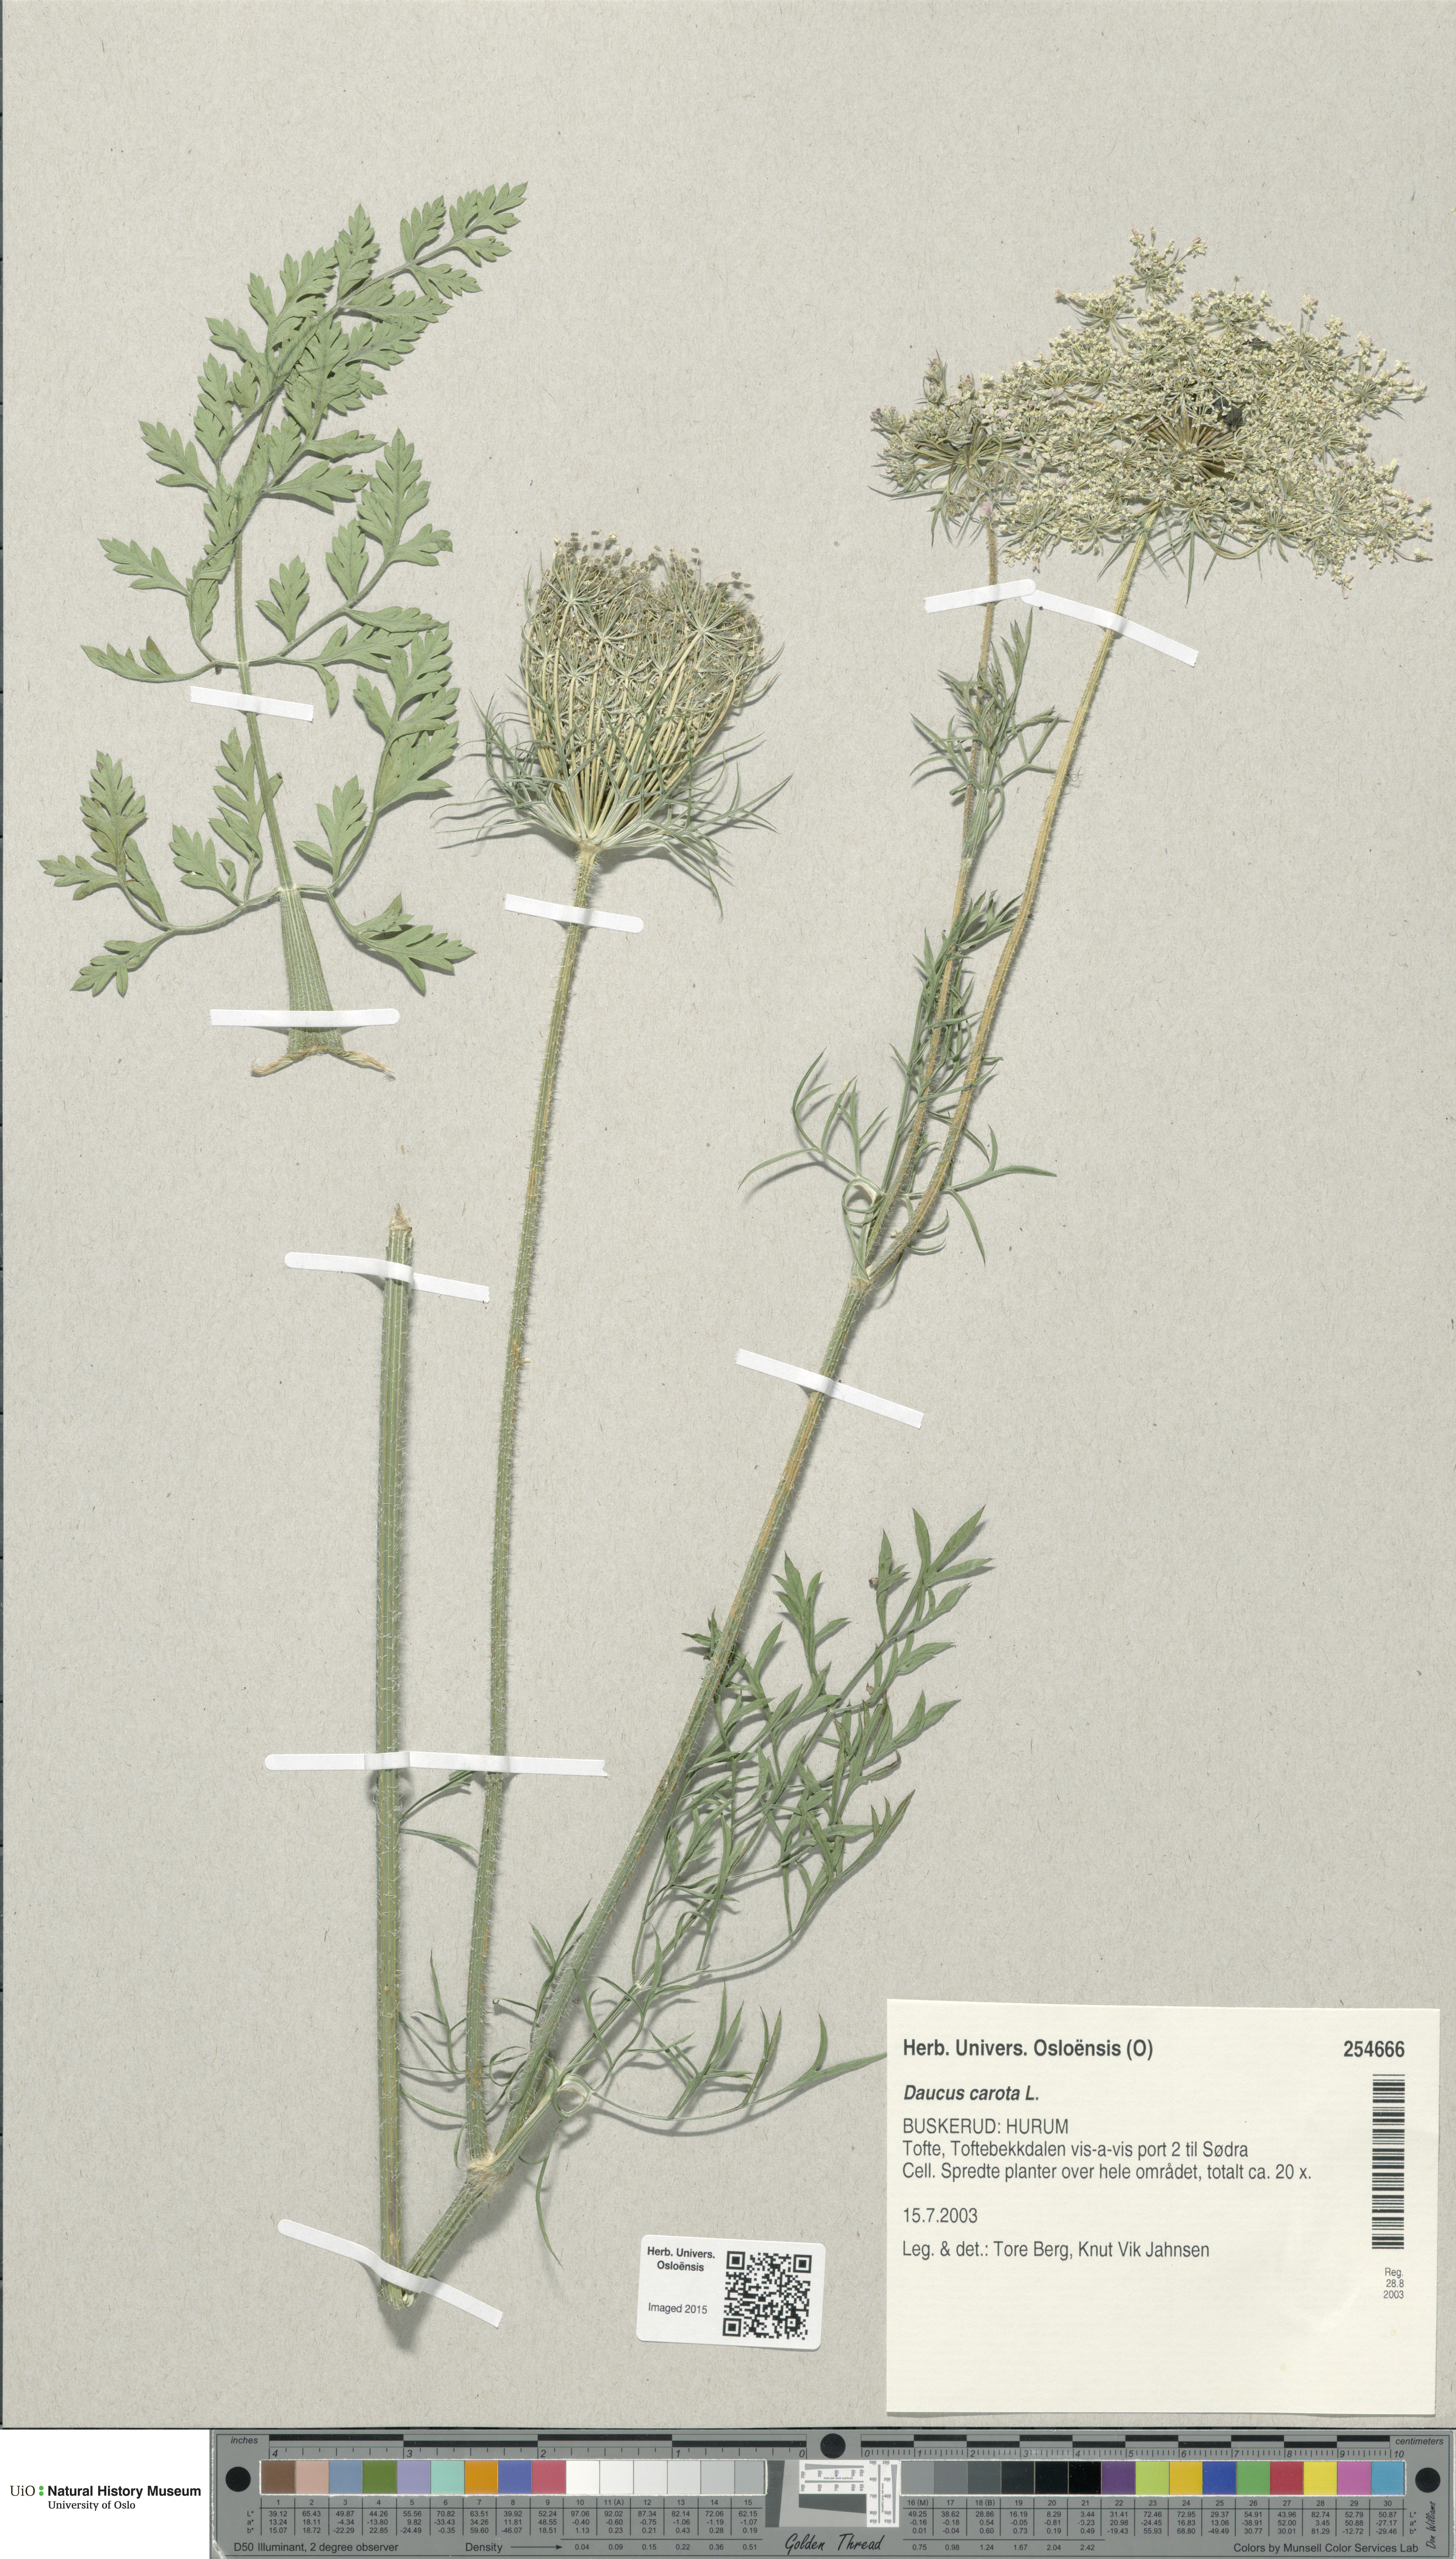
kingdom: Plantae
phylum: Tracheophyta
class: Magnoliopsida
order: Apiales
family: Apiaceae
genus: Daucus
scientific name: Daucus carota
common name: Wild carrot
